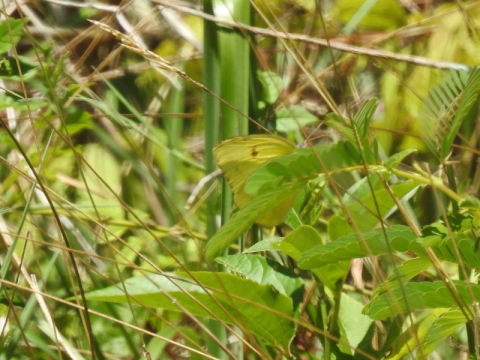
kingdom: Animalia
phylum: Arthropoda
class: Insecta
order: Lepidoptera
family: Pieridae
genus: Colias
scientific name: Colias philodice
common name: Clouded Sulphur
